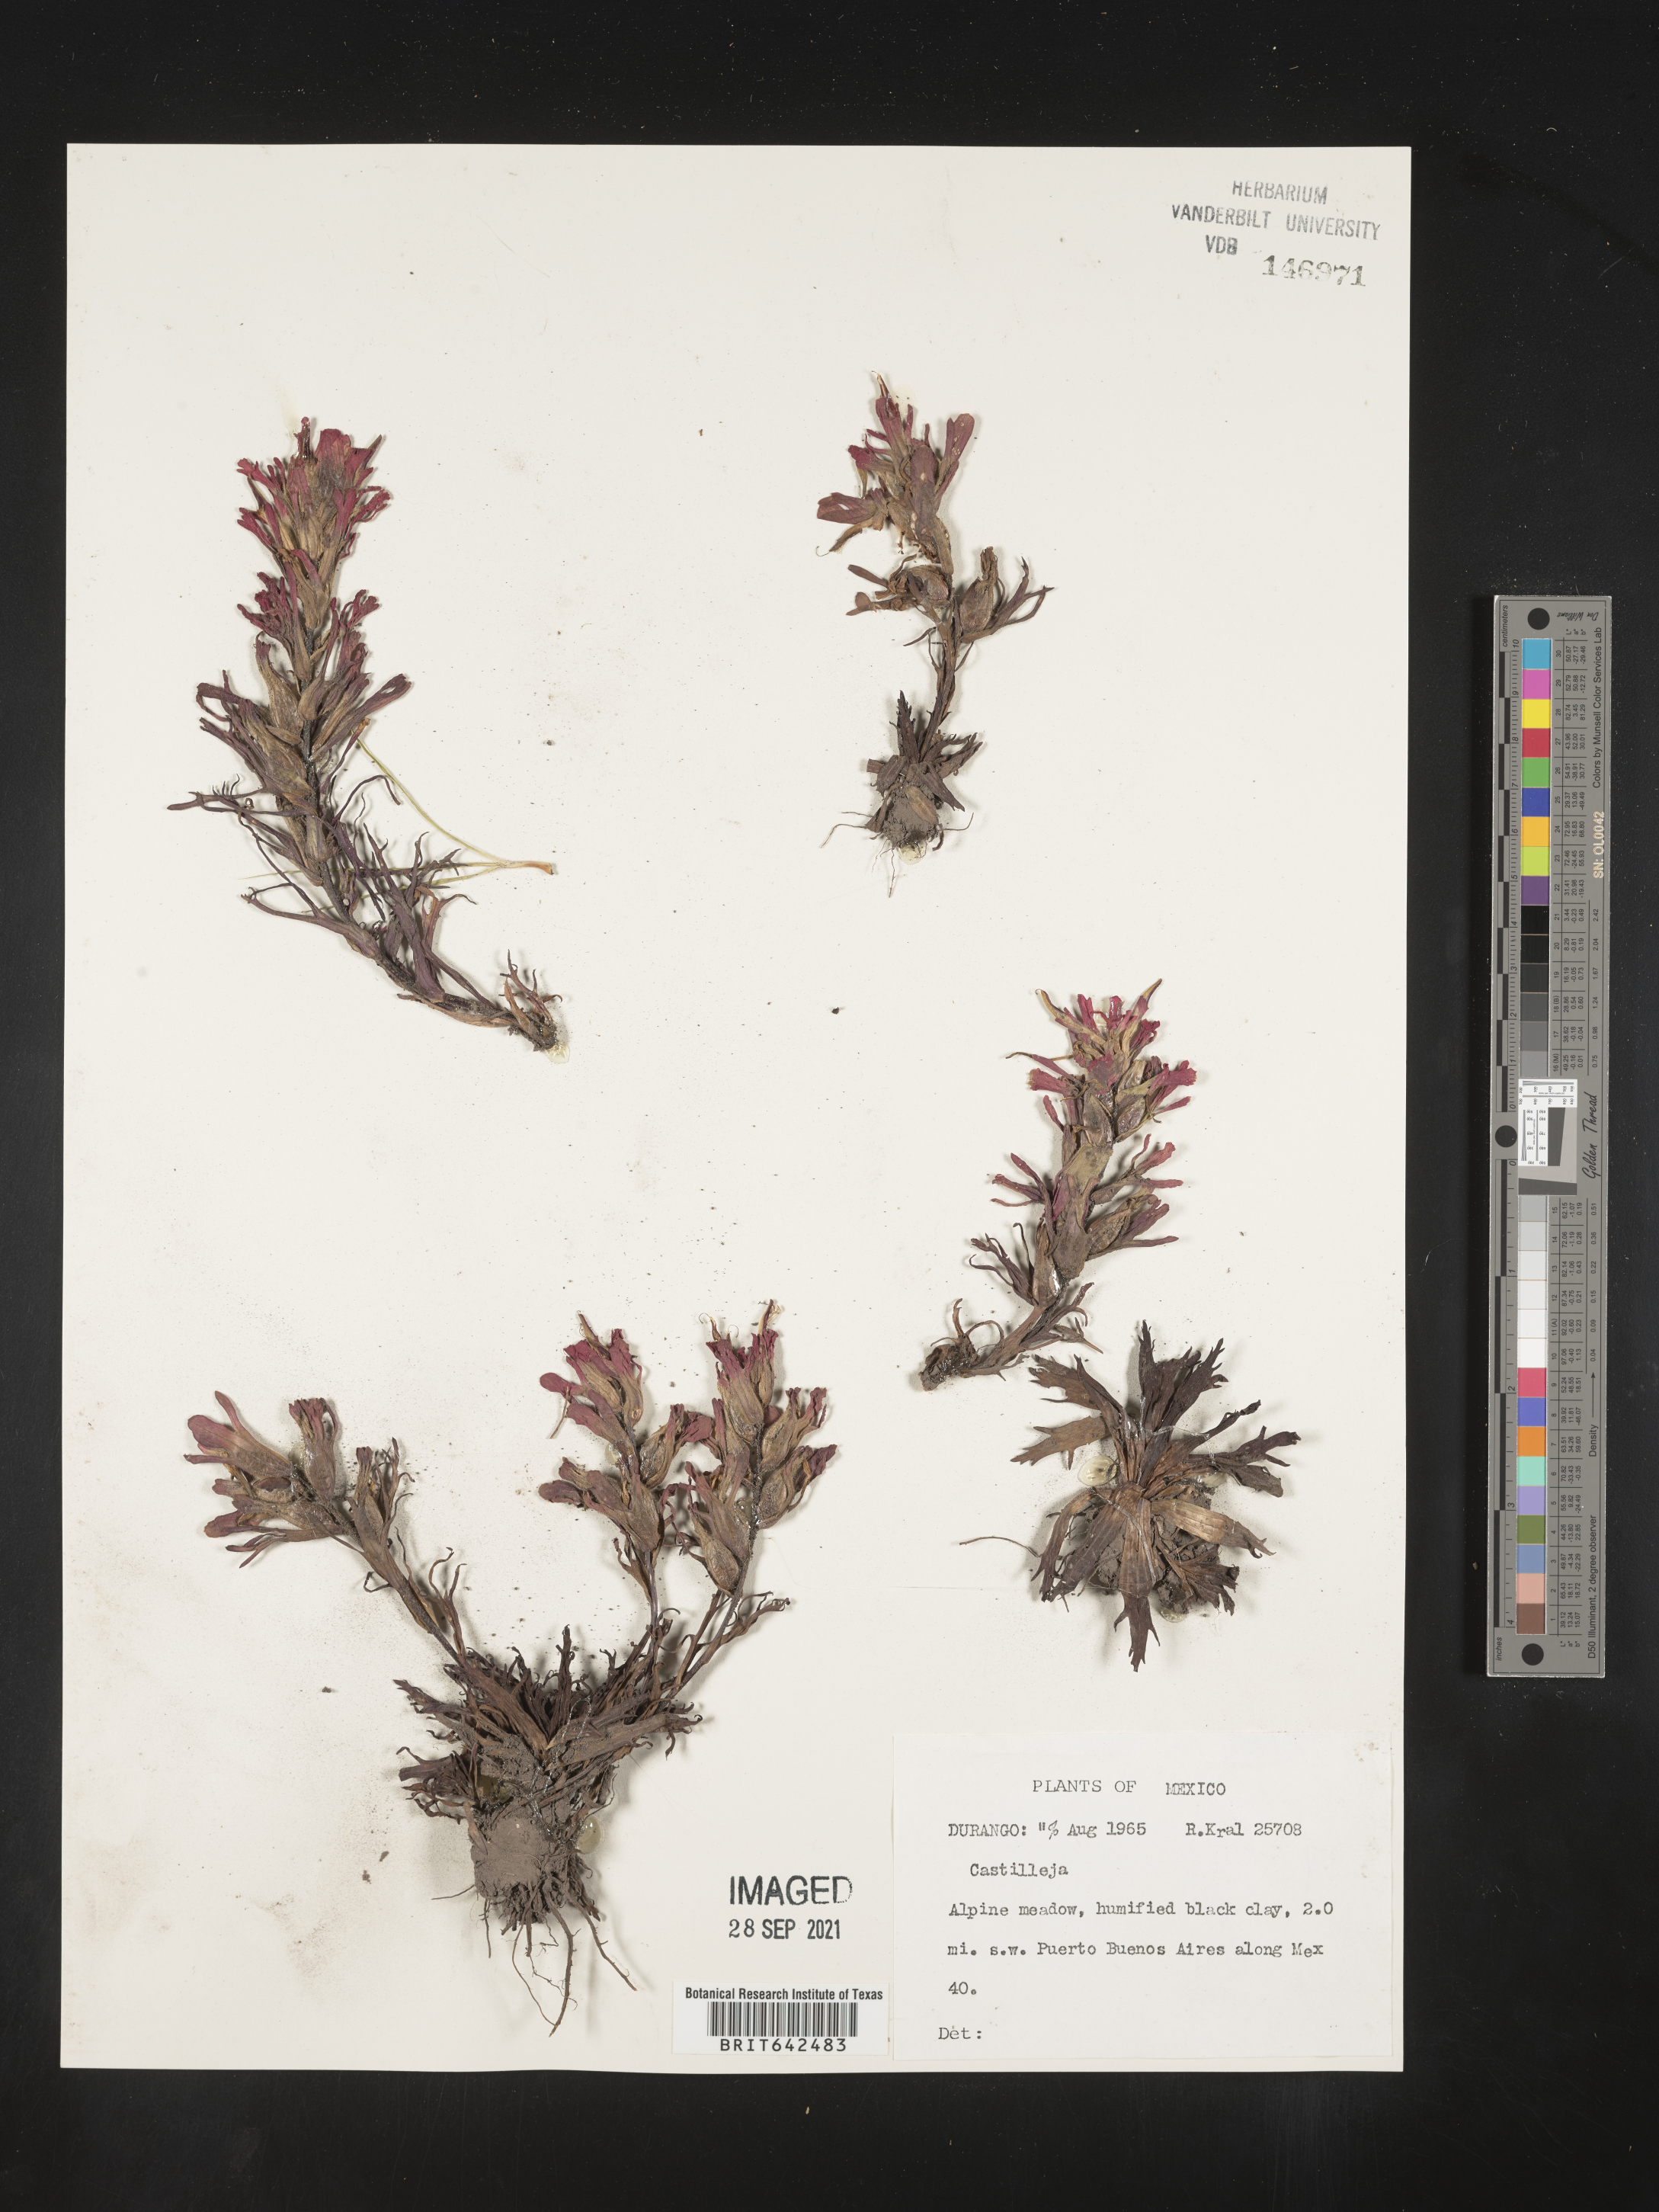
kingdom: Plantae
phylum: Tracheophyta
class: Magnoliopsida
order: Lamiales
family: Orobanchaceae
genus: Castilleja
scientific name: Castilleja
